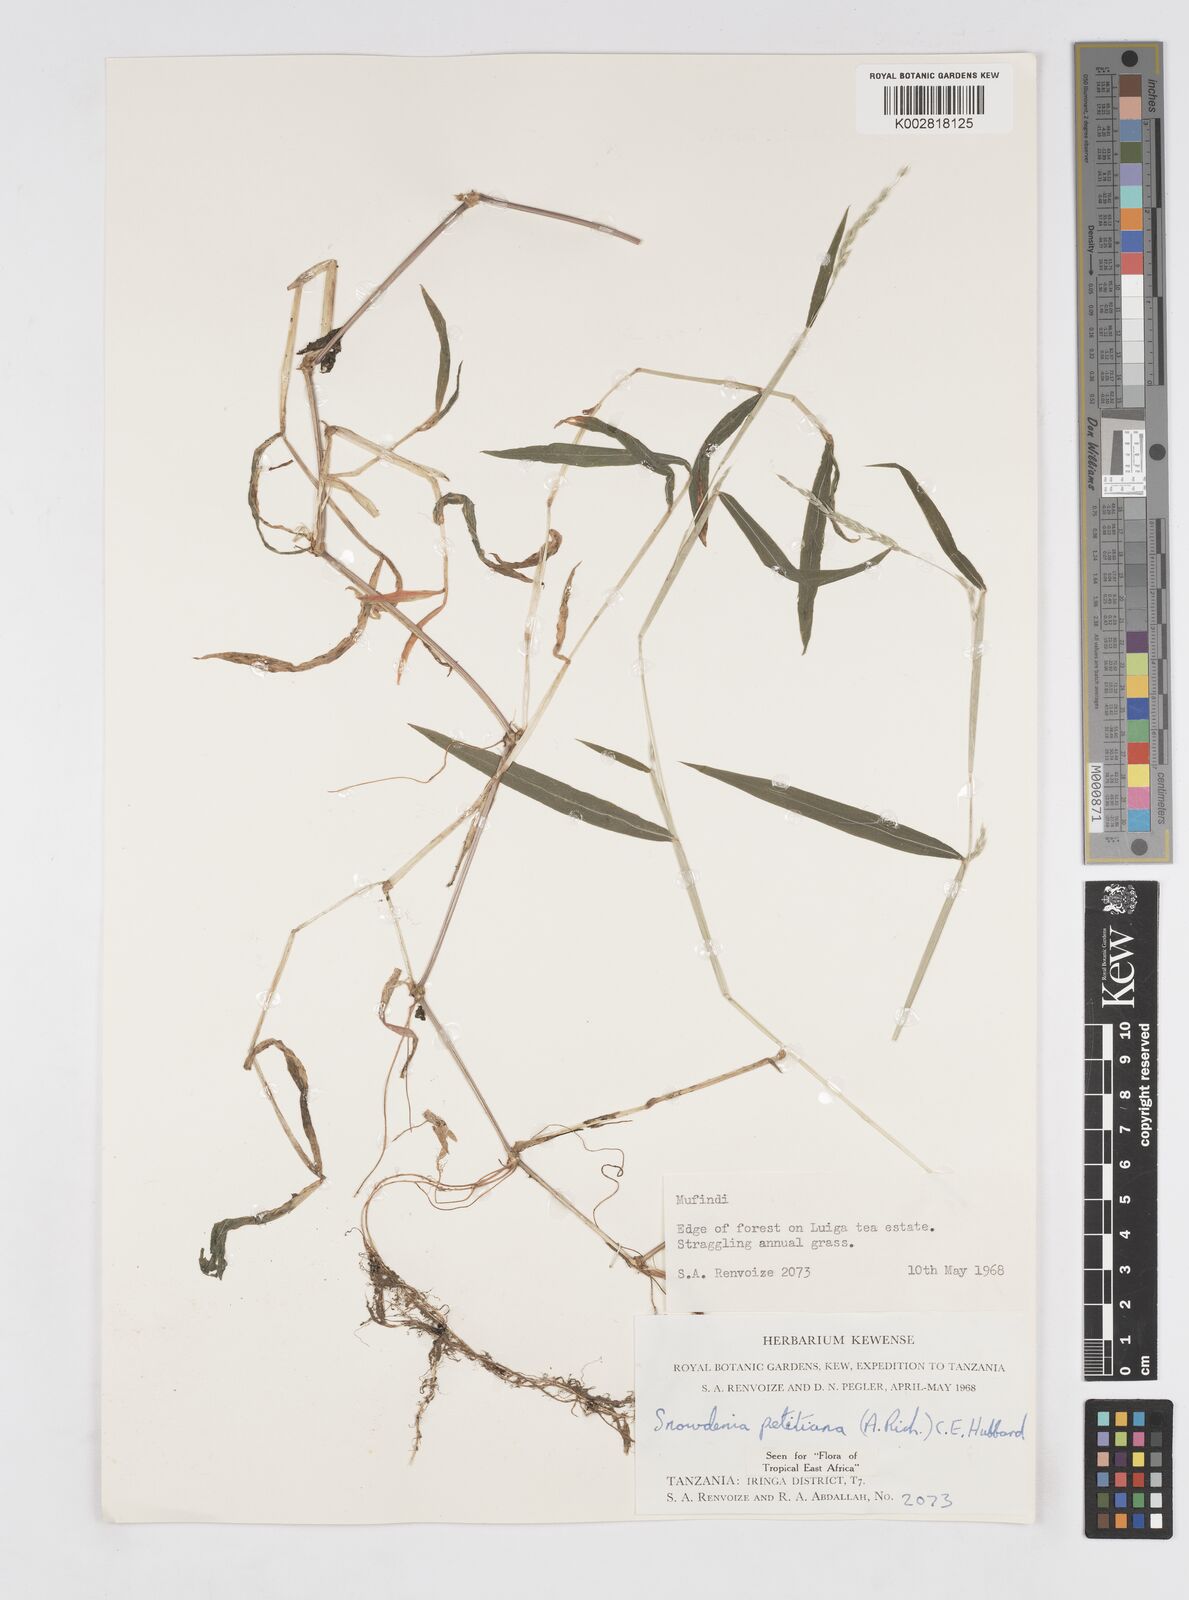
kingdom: Plantae
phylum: Tracheophyta
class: Liliopsida
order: Poales
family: Poaceae
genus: Snowdenia
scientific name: Snowdenia petitiana
